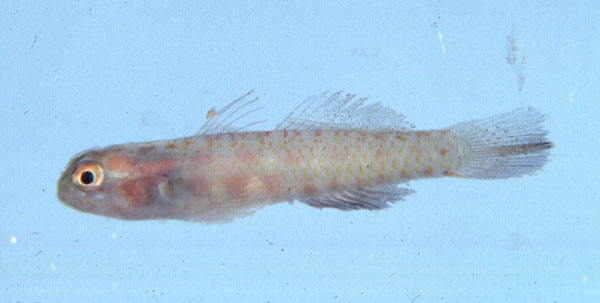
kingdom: Animalia
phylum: Chordata
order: Perciformes
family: Gobiidae
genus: Eviota
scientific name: Eviota albolineata
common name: Spotted fringefin goby
